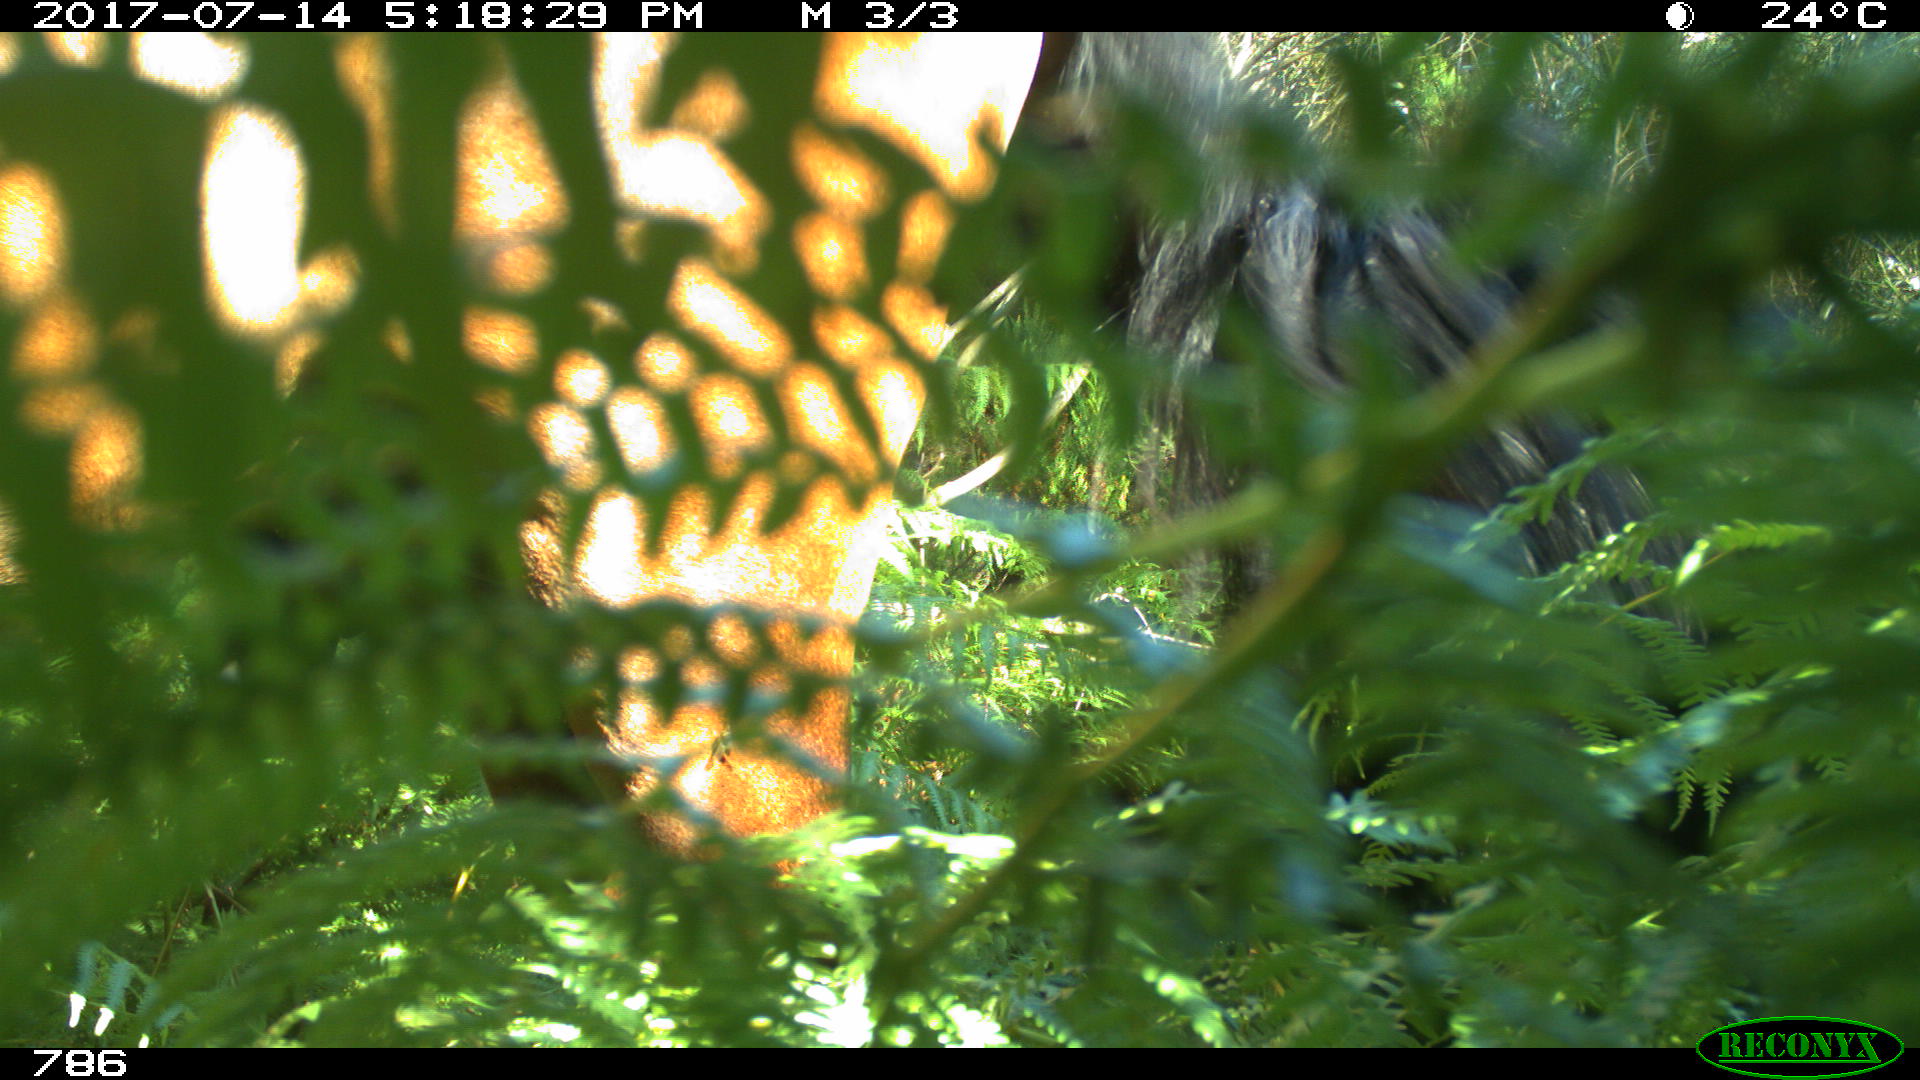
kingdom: Animalia
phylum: Chordata
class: Mammalia
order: Perissodactyla
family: Equidae
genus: Equus
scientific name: Equus caballus
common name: Horse
